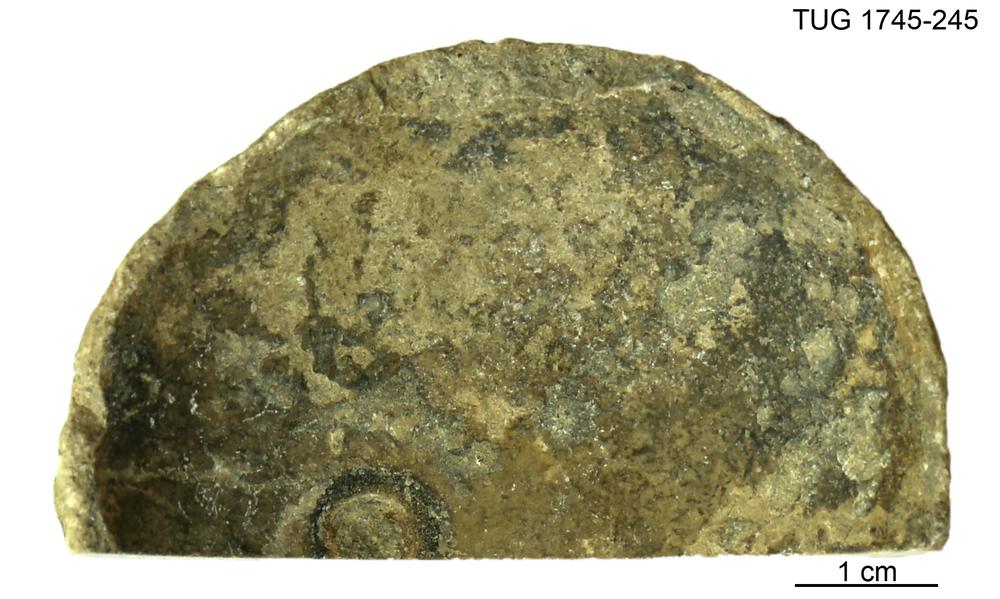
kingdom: Animalia
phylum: Mollusca
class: Cephalopoda
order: Orthocerida
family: Proteoceratidae
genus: Ephippiorthoceras
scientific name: Ephippiorthoceras
